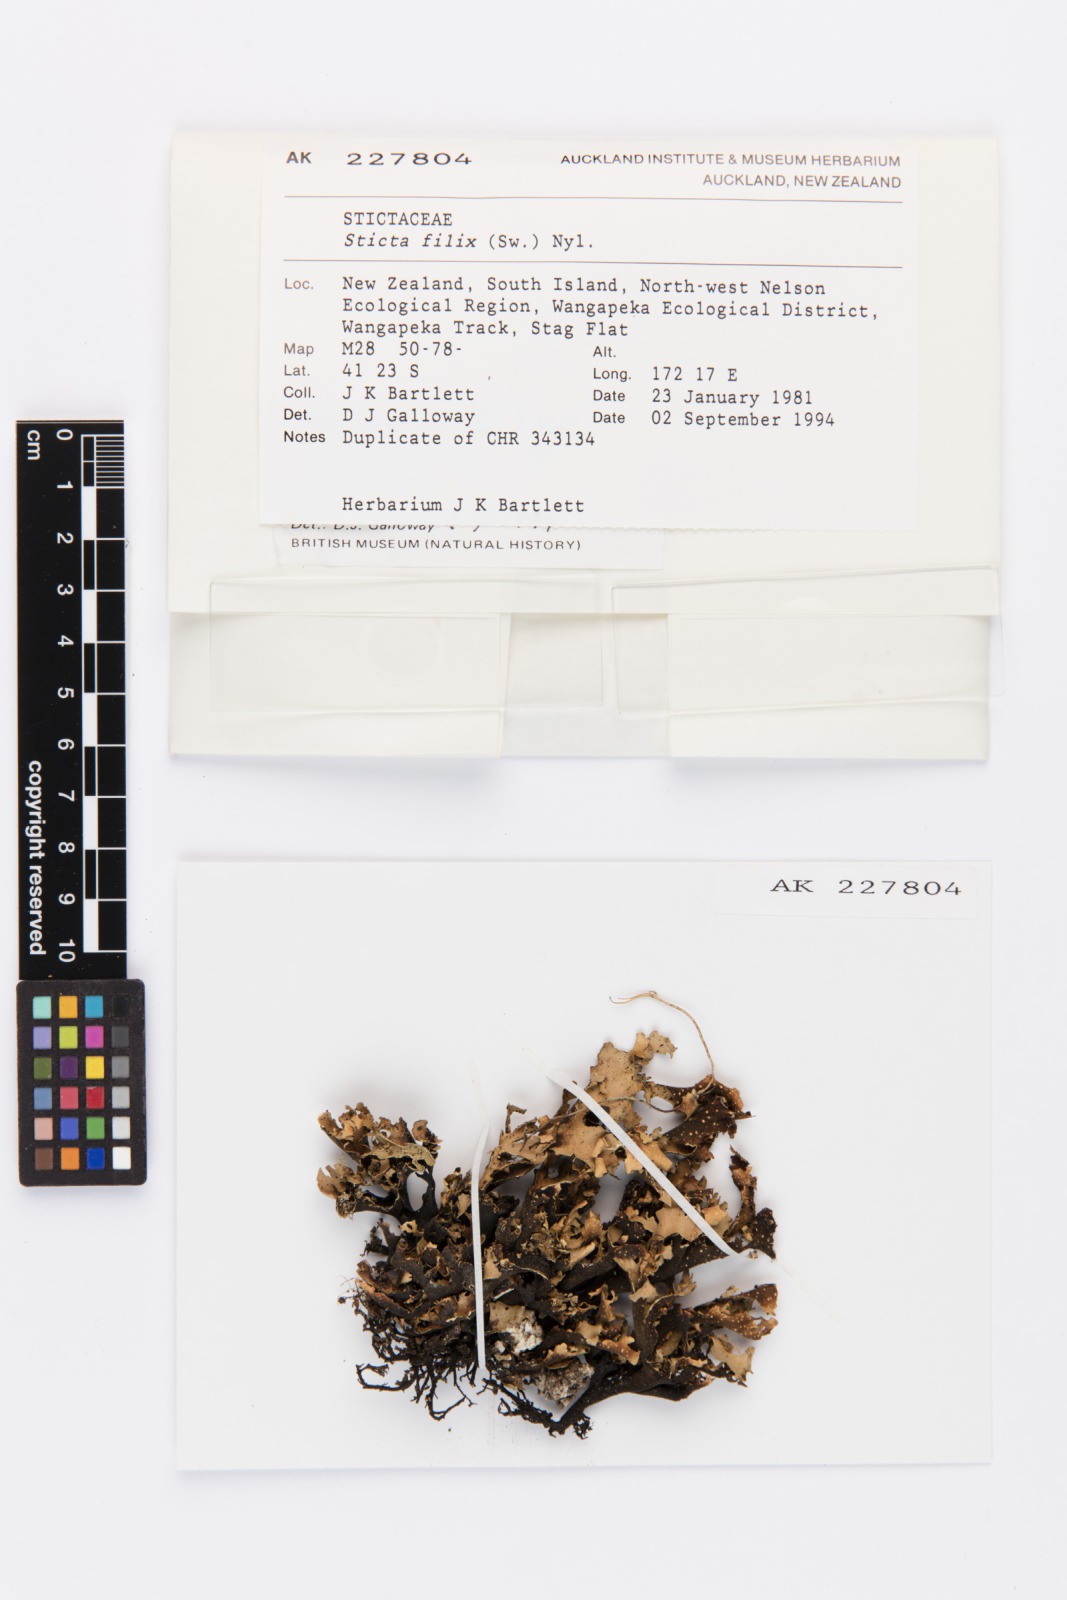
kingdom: Fungi
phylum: Ascomycota
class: Lecanoromycetes
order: Peltigerales
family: Lobariaceae
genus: Sticta
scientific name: Sticta filix
